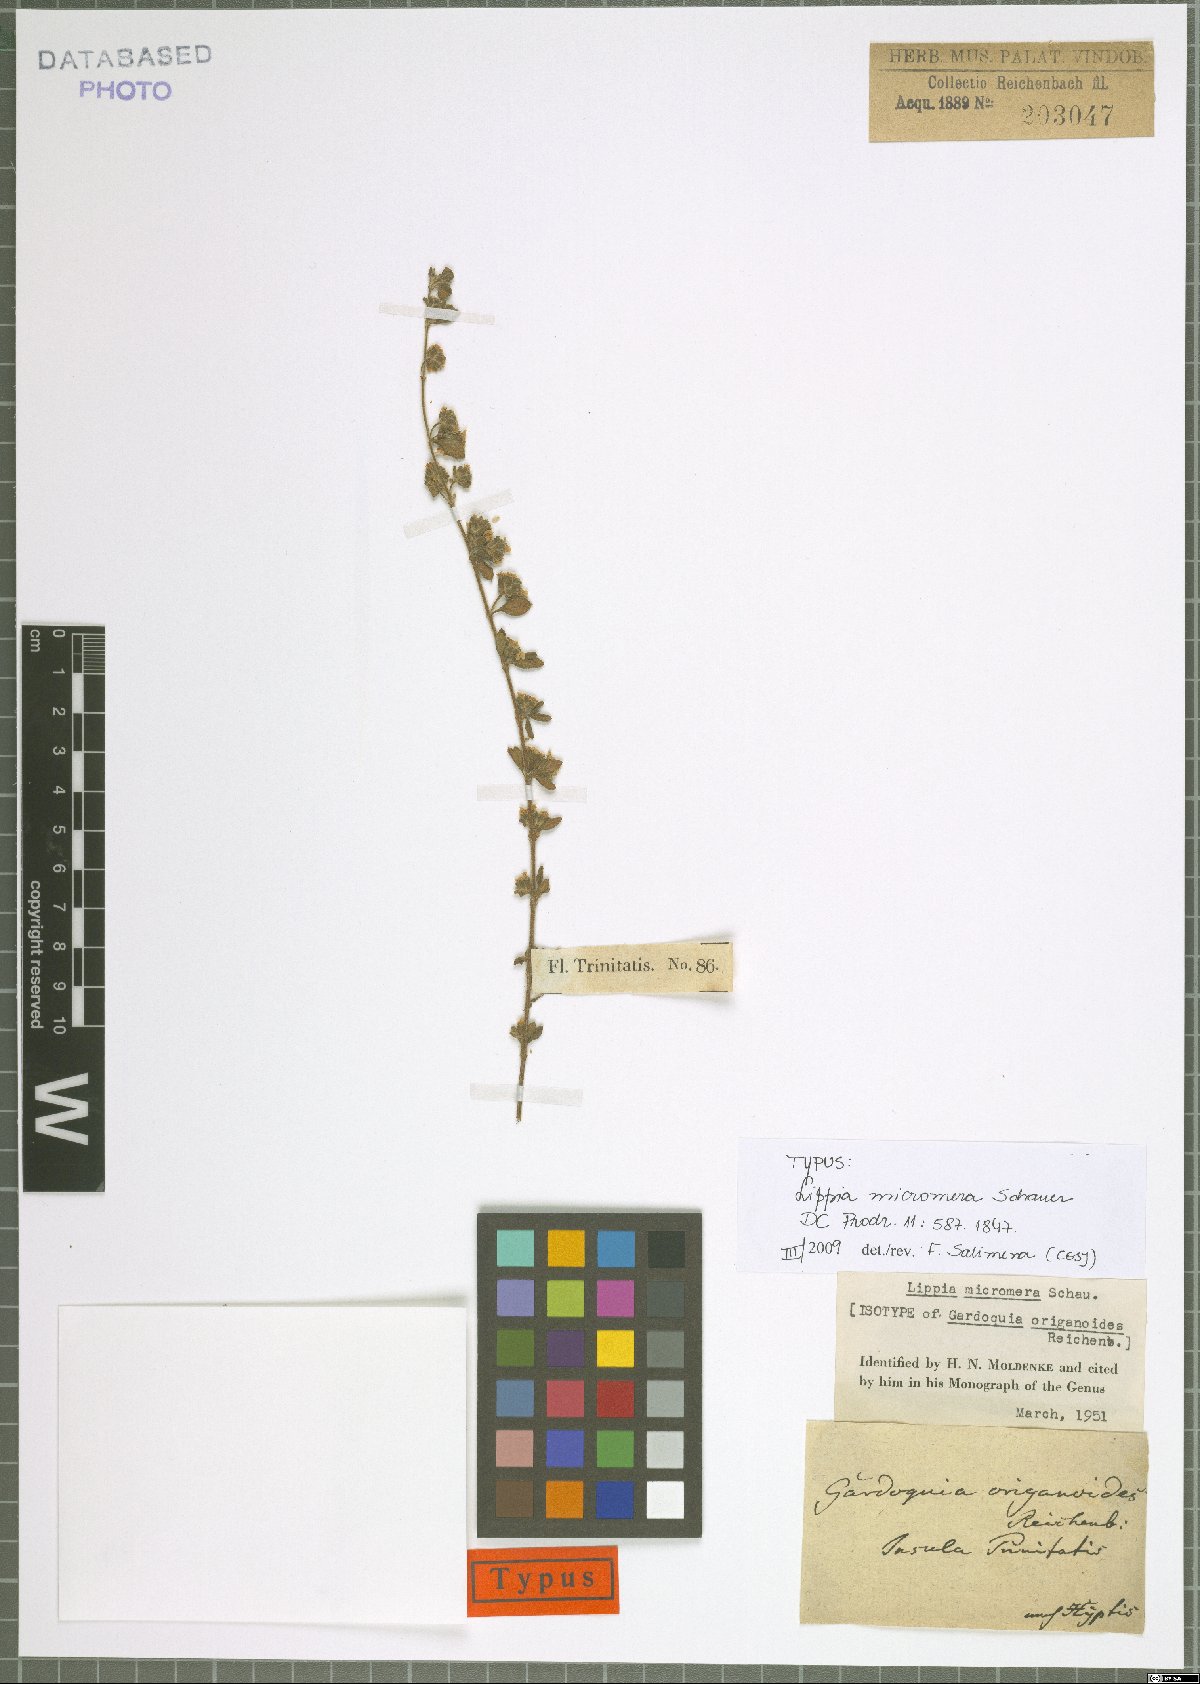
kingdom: Plantae
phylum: Tracheophyta
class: Magnoliopsida
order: Lamiales
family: Verbenaceae
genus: Lippia
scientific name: Lippia micromera
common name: Puerto rican oregano
